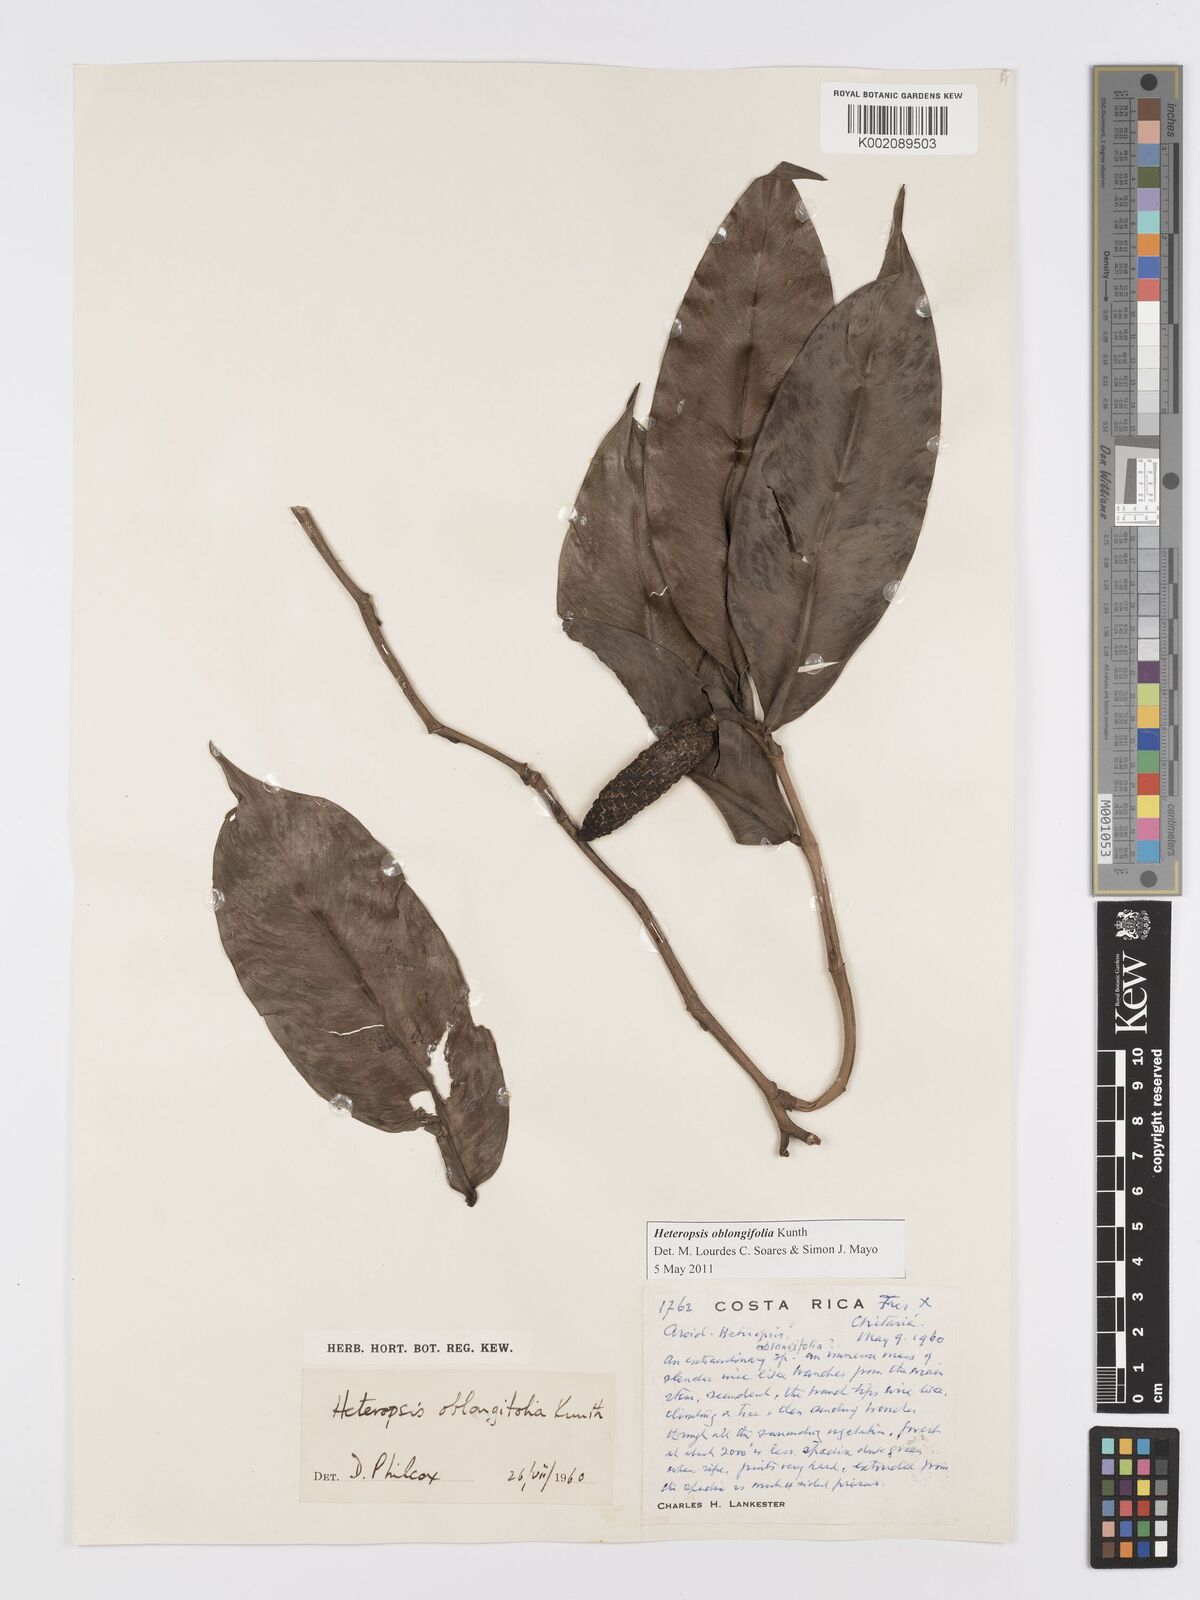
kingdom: Plantae
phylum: Tracheophyta
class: Liliopsida
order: Alismatales
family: Araceae
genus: Heteropsis
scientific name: Heteropsis oblongifolia
